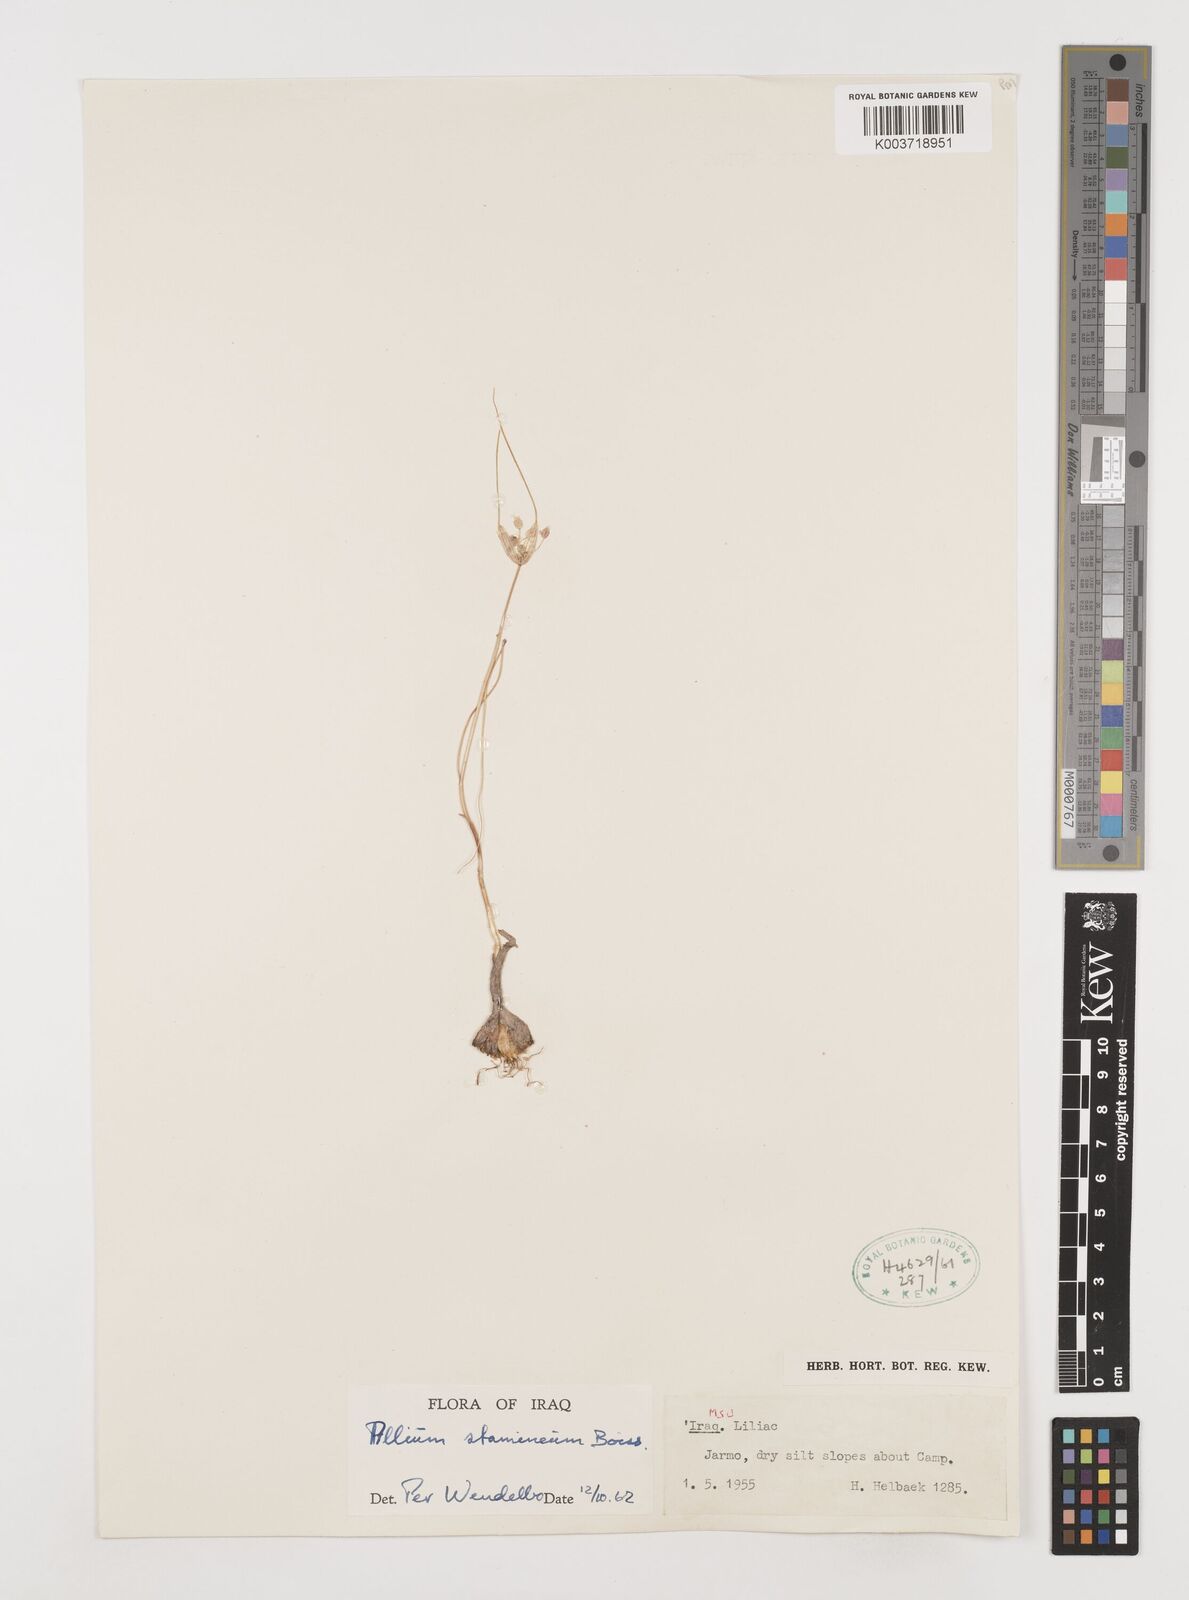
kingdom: Plantae
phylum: Tracheophyta
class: Liliopsida
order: Asparagales
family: Amaryllidaceae
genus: Allium
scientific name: Allium stamineum
